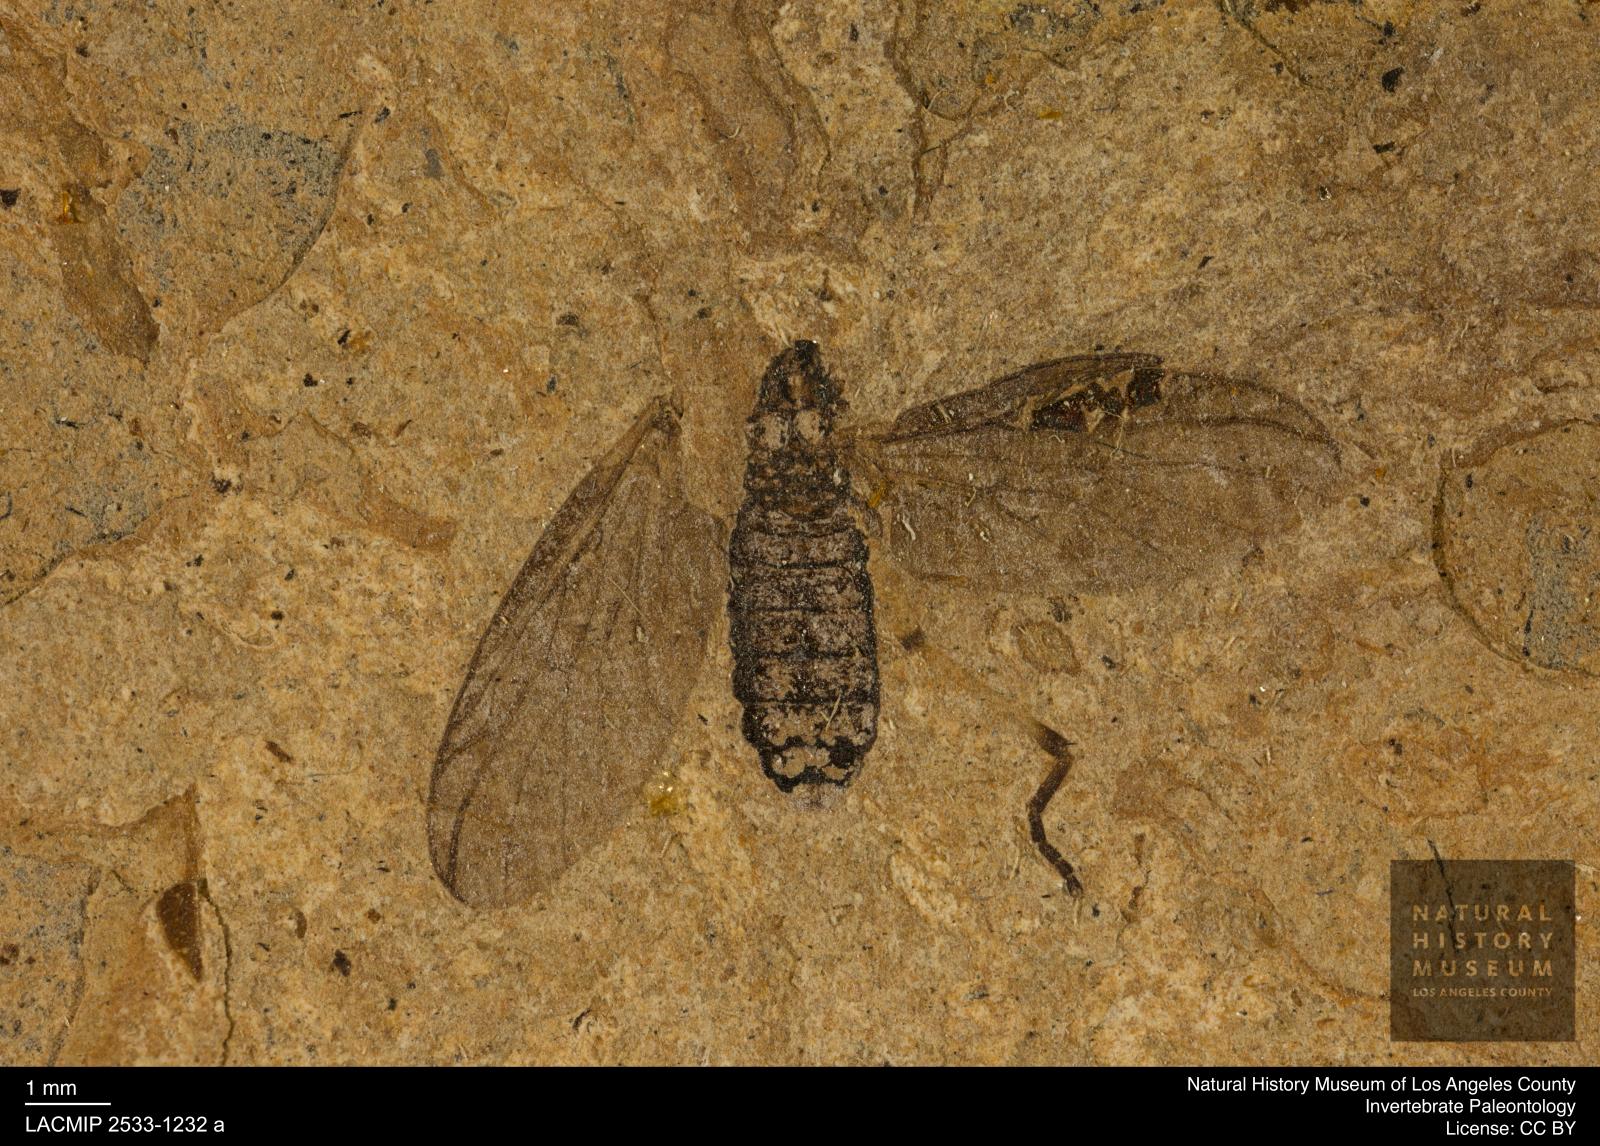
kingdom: Animalia
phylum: Arthropoda
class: Insecta
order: Diptera
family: Bibionidae
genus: Plecia
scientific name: Plecia stygia
